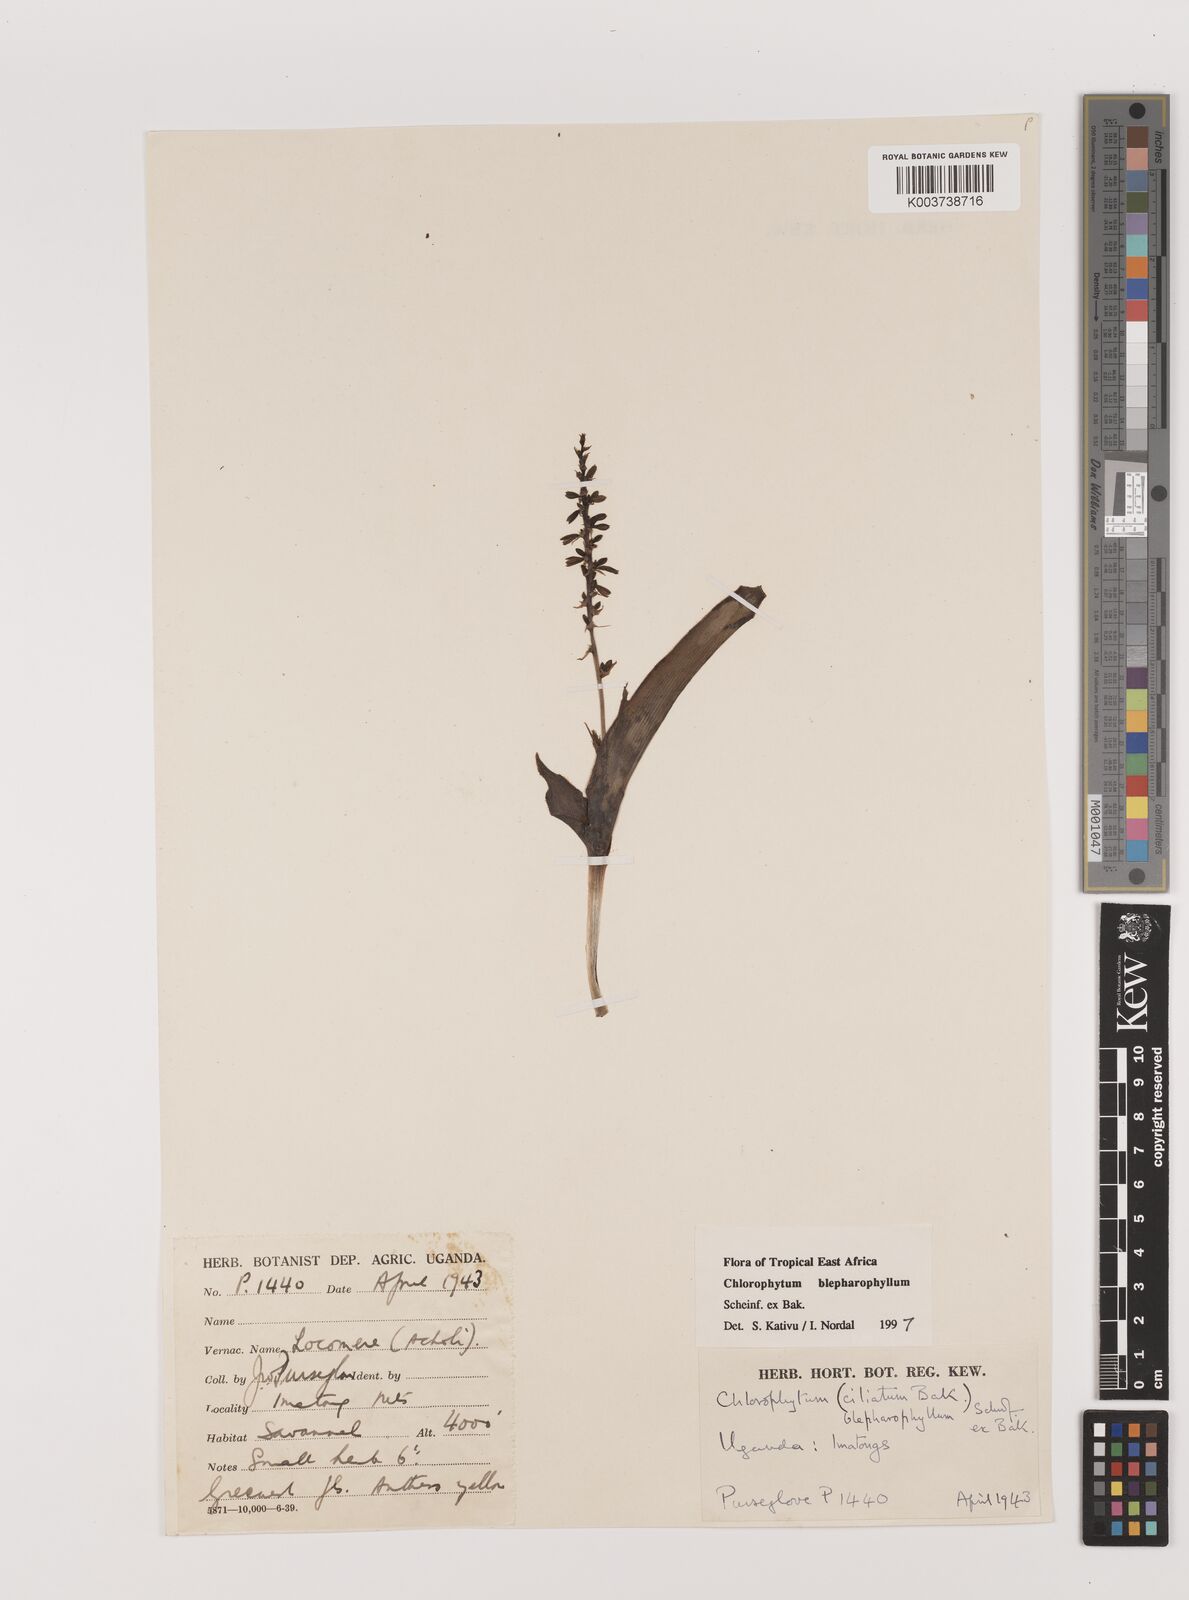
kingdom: Plantae
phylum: Tracheophyta
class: Liliopsida
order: Asparagales
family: Asparagaceae
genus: Chlorophytum
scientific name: Chlorophytum blepharophyllum
